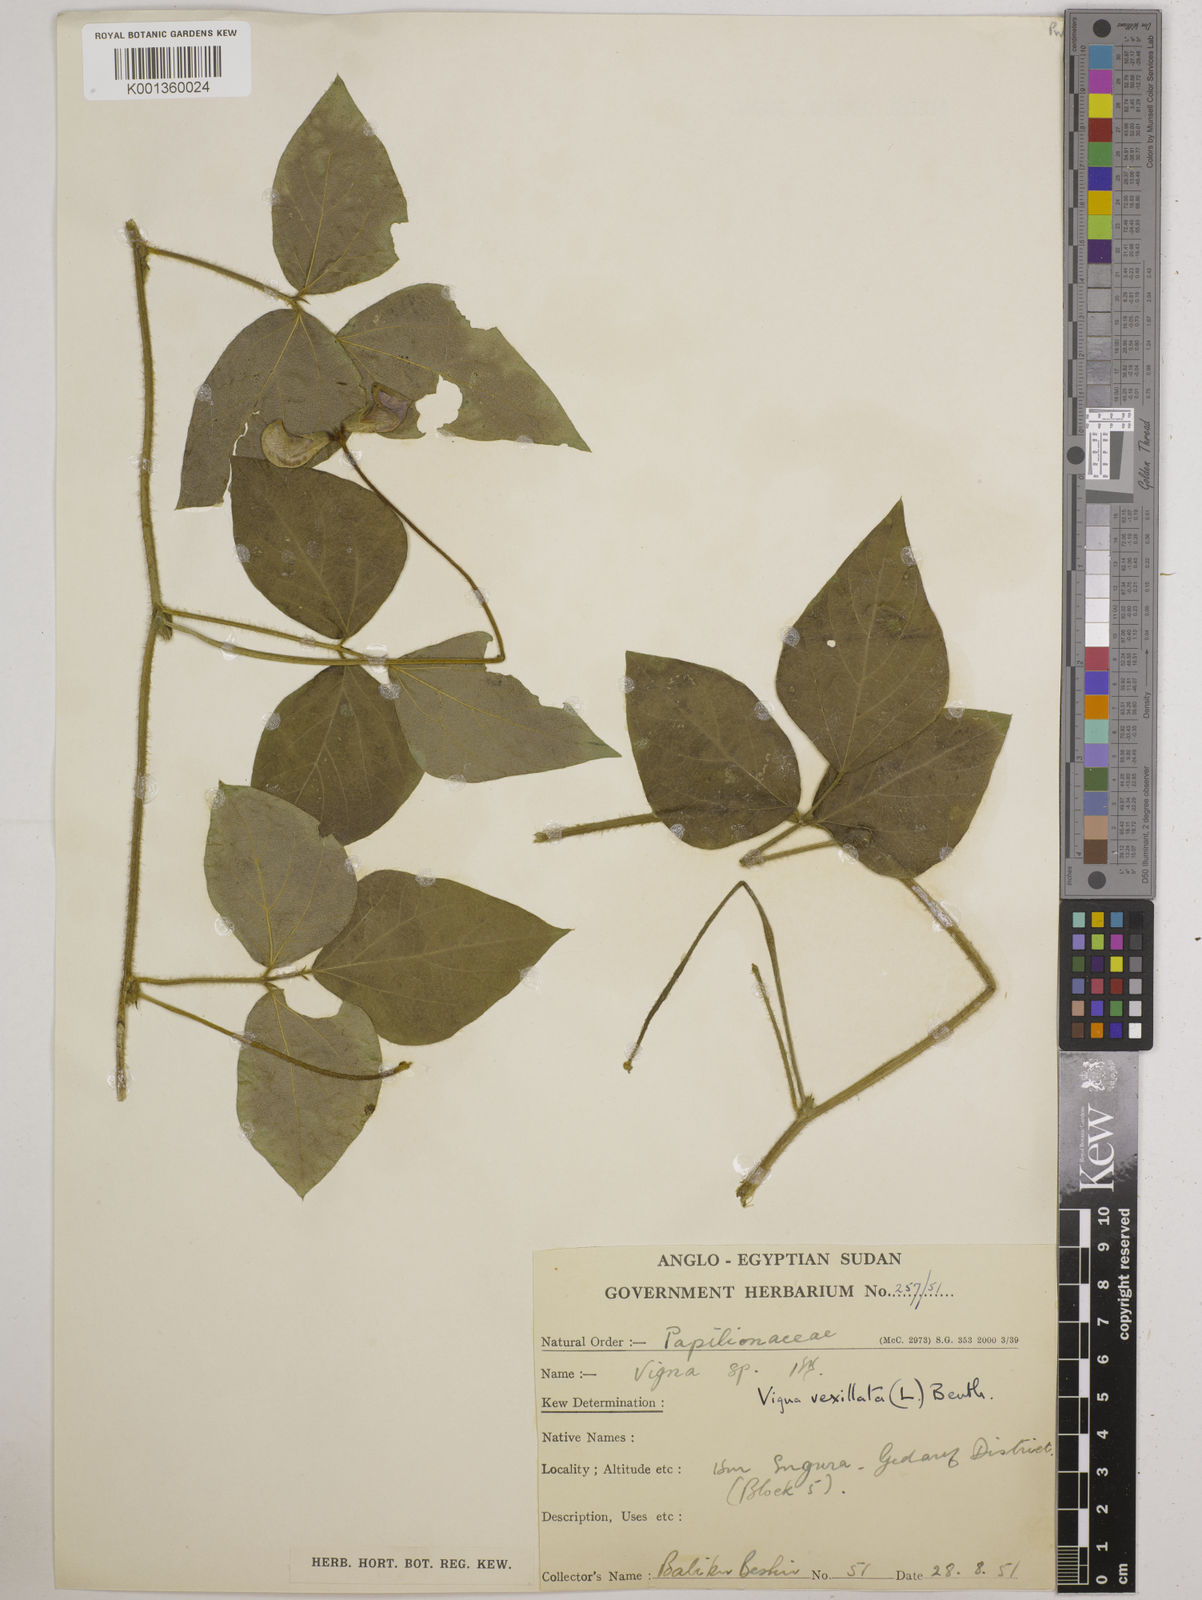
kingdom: Plantae
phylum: Tracheophyta
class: Magnoliopsida
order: Fabales
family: Fabaceae
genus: Vigna
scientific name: Vigna vexillata
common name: Zombi pea
